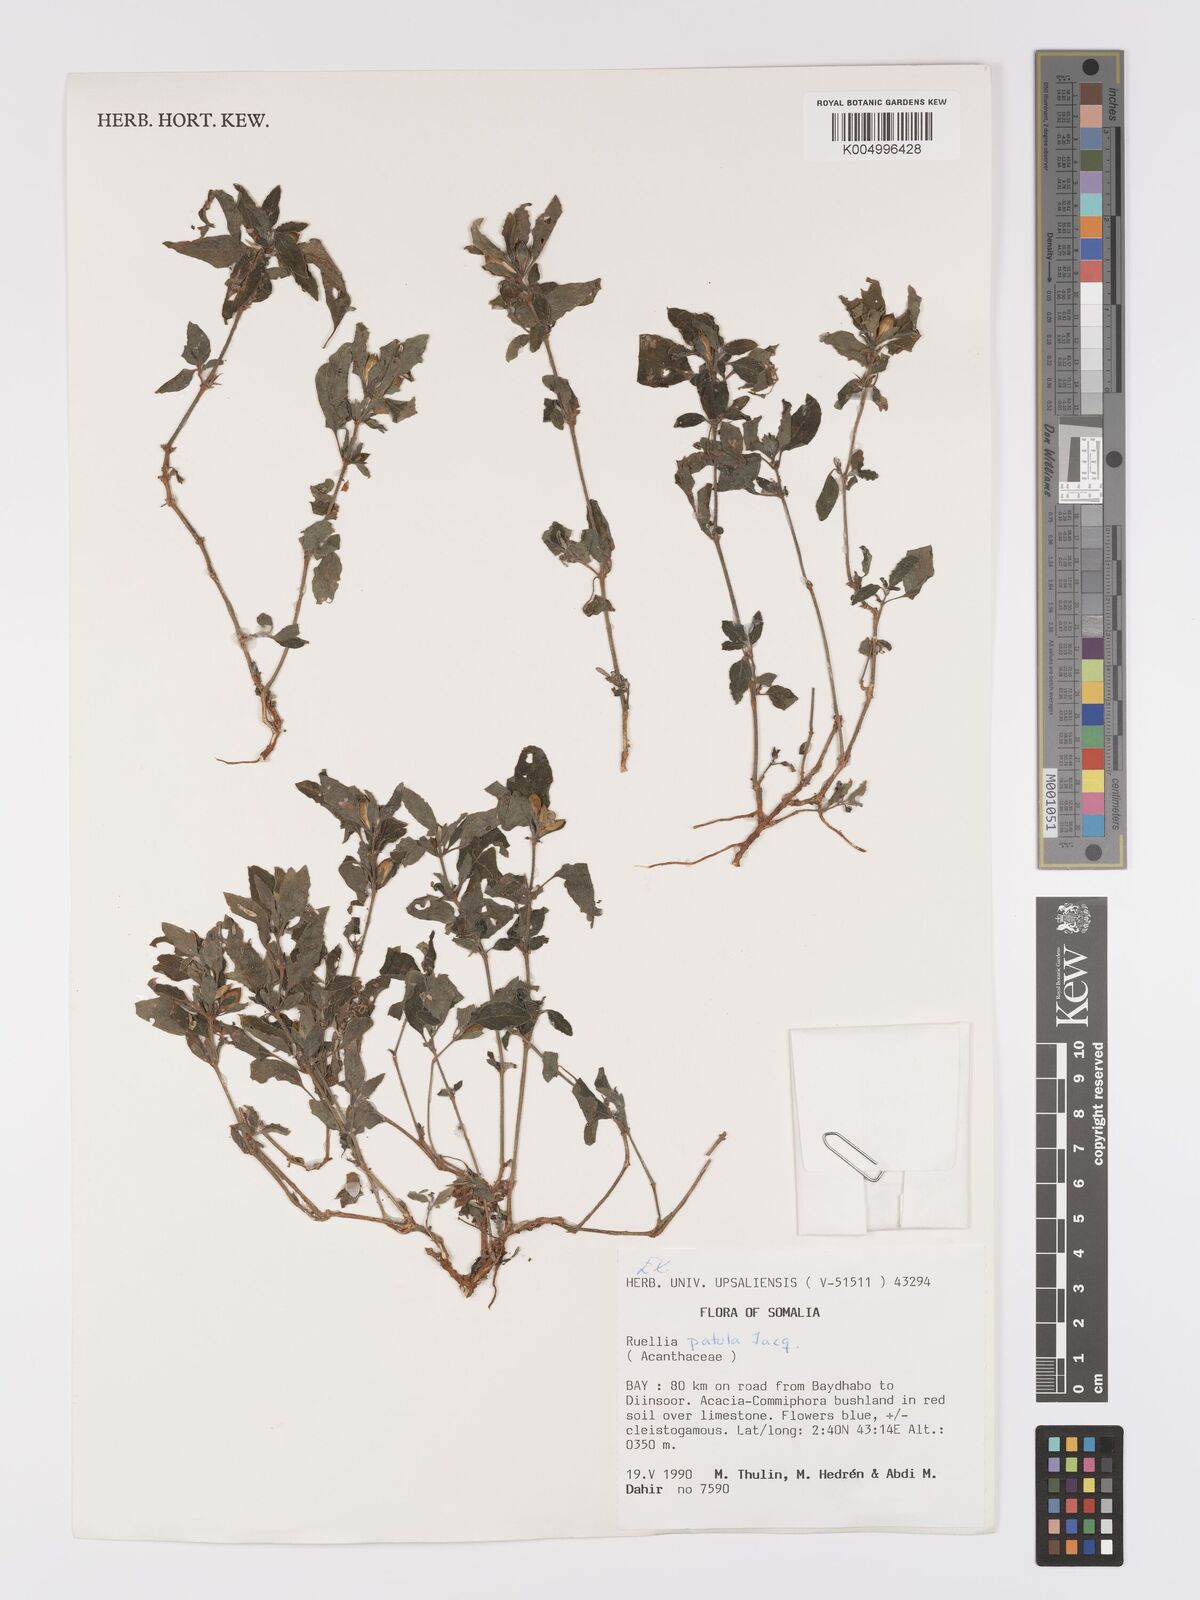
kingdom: Plantae
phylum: Tracheophyta
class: Magnoliopsida
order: Lamiales
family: Acanthaceae
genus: Ruellia
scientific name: Ruellia patula
